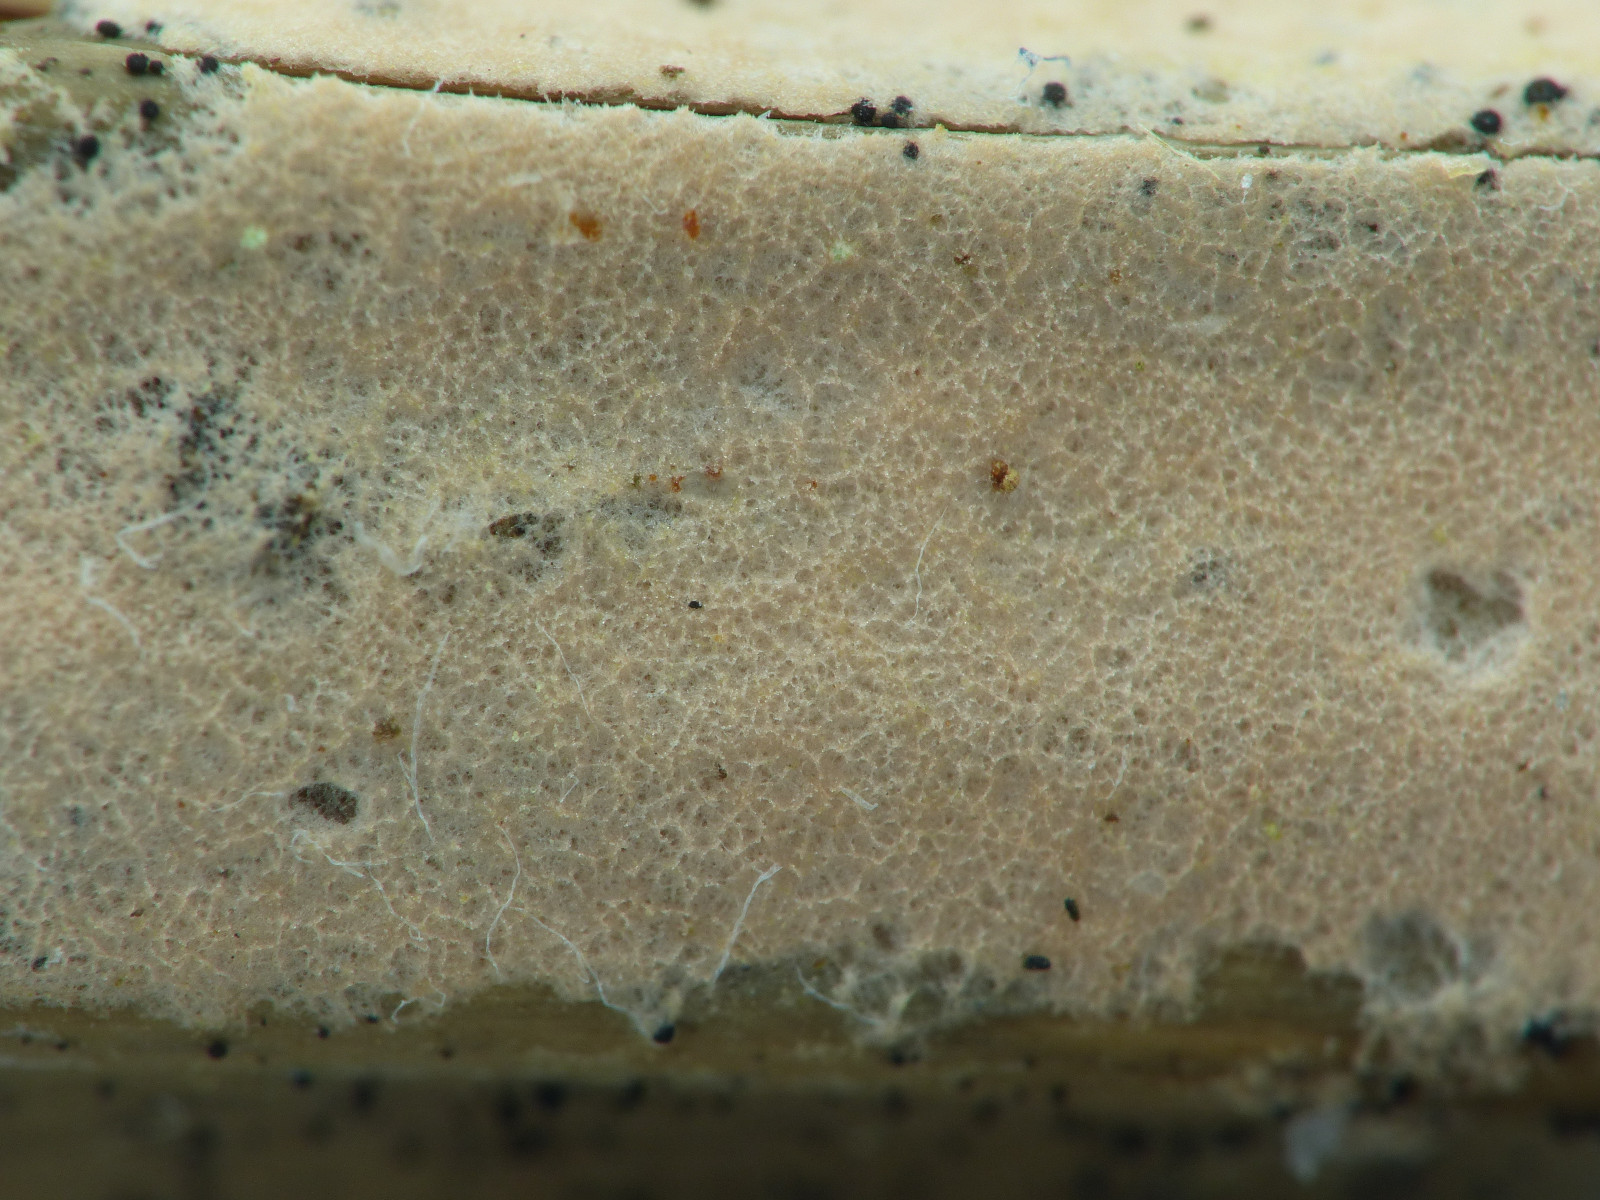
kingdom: Fungi
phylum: Basidiomycota
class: Agaricomycetes
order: Corticiales
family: Corticiaceae
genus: Erythricium
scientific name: Erythricium laetum
